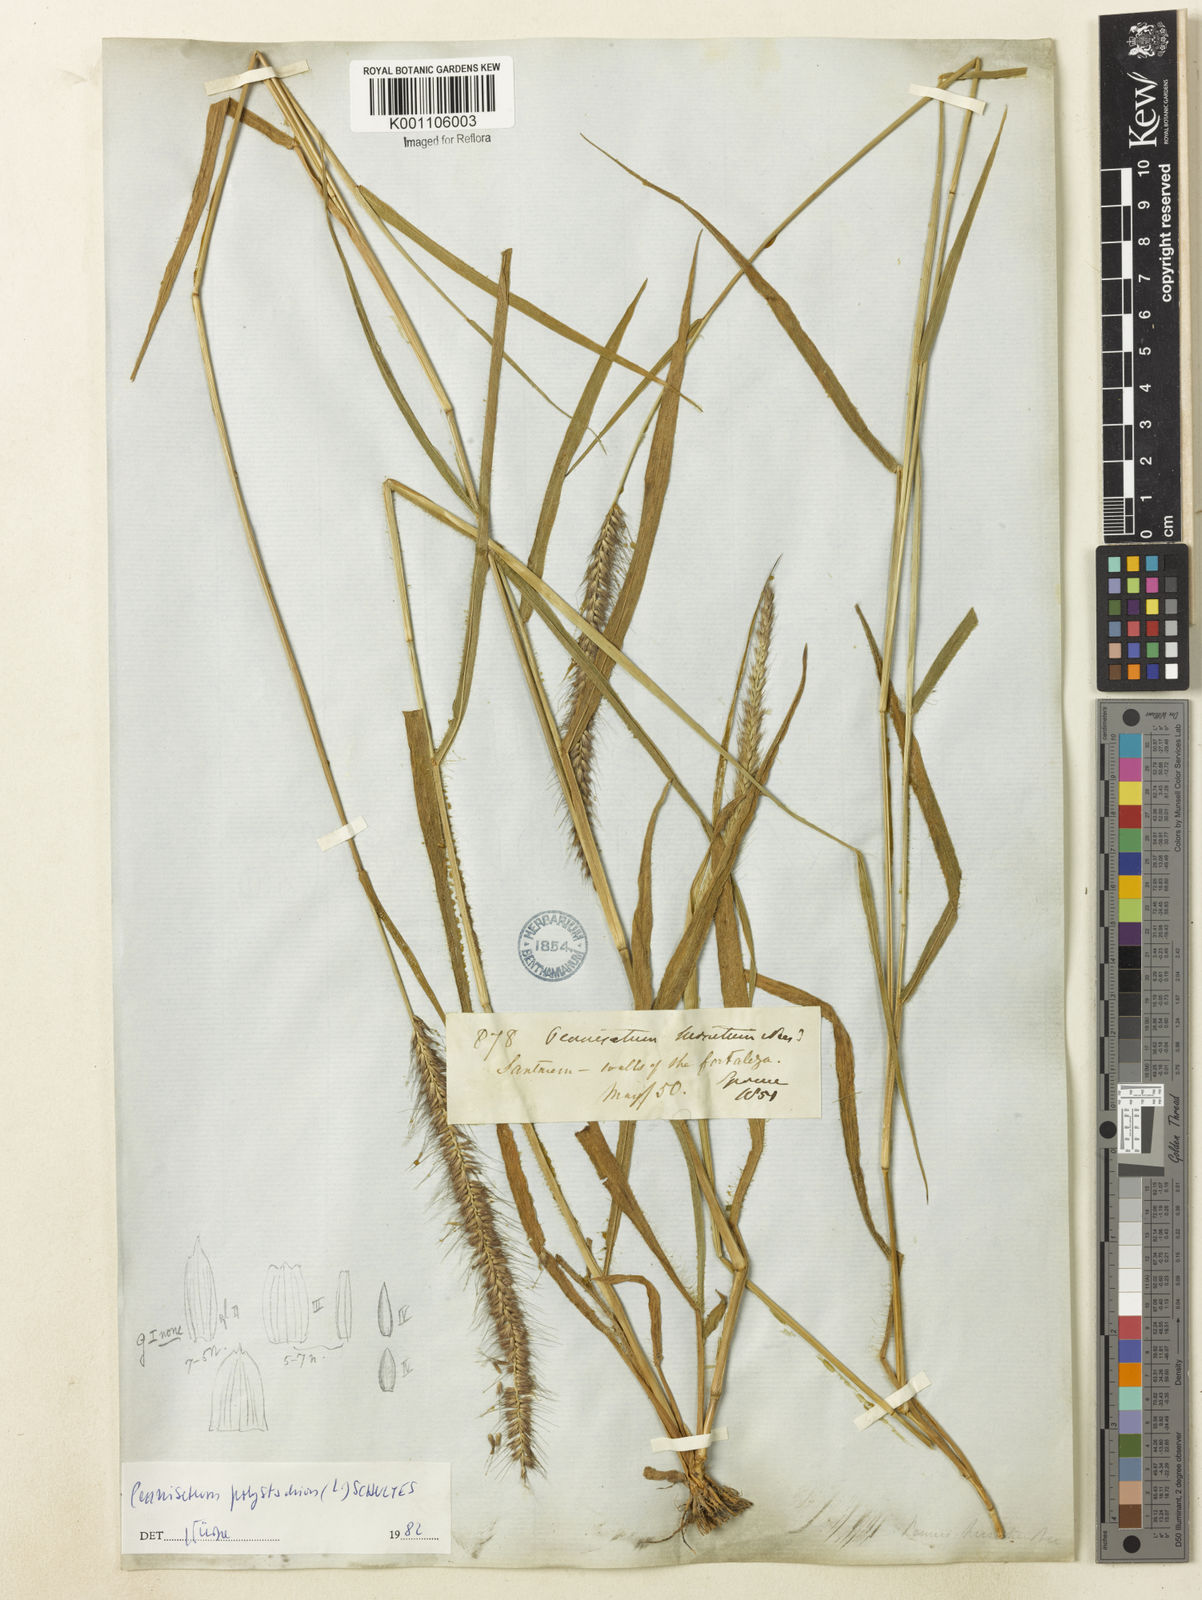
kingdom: Plantae
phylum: Tracheophyta
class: Liliopsida
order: Poales
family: Poaceae
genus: Setaria
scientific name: Setaria parviflora
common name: Knotroot bristle-grass
